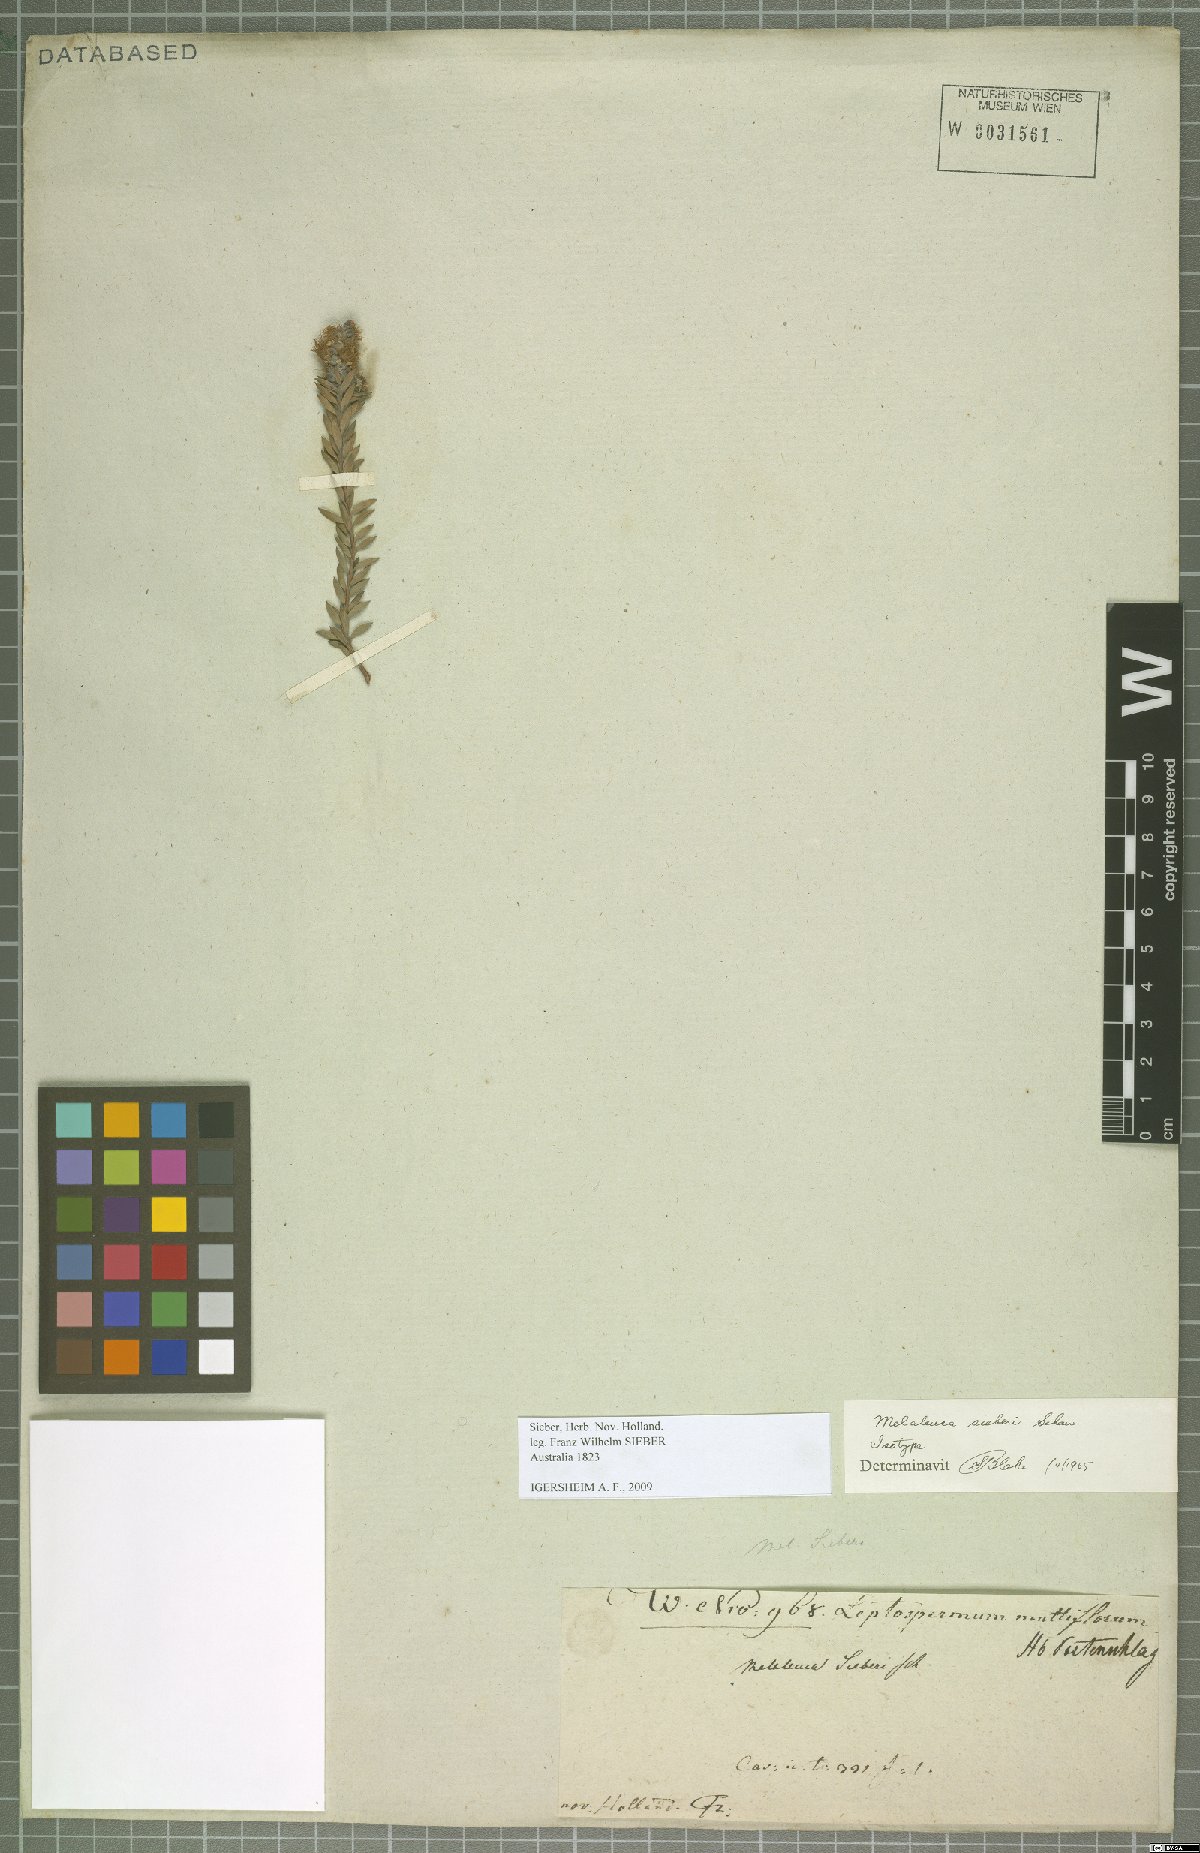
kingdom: Plantae
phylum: Tracheophyta
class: Magnoliopsida
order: Myrtales
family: Myrtaceae
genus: Melaleuca
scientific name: Melaleuca sieberi
